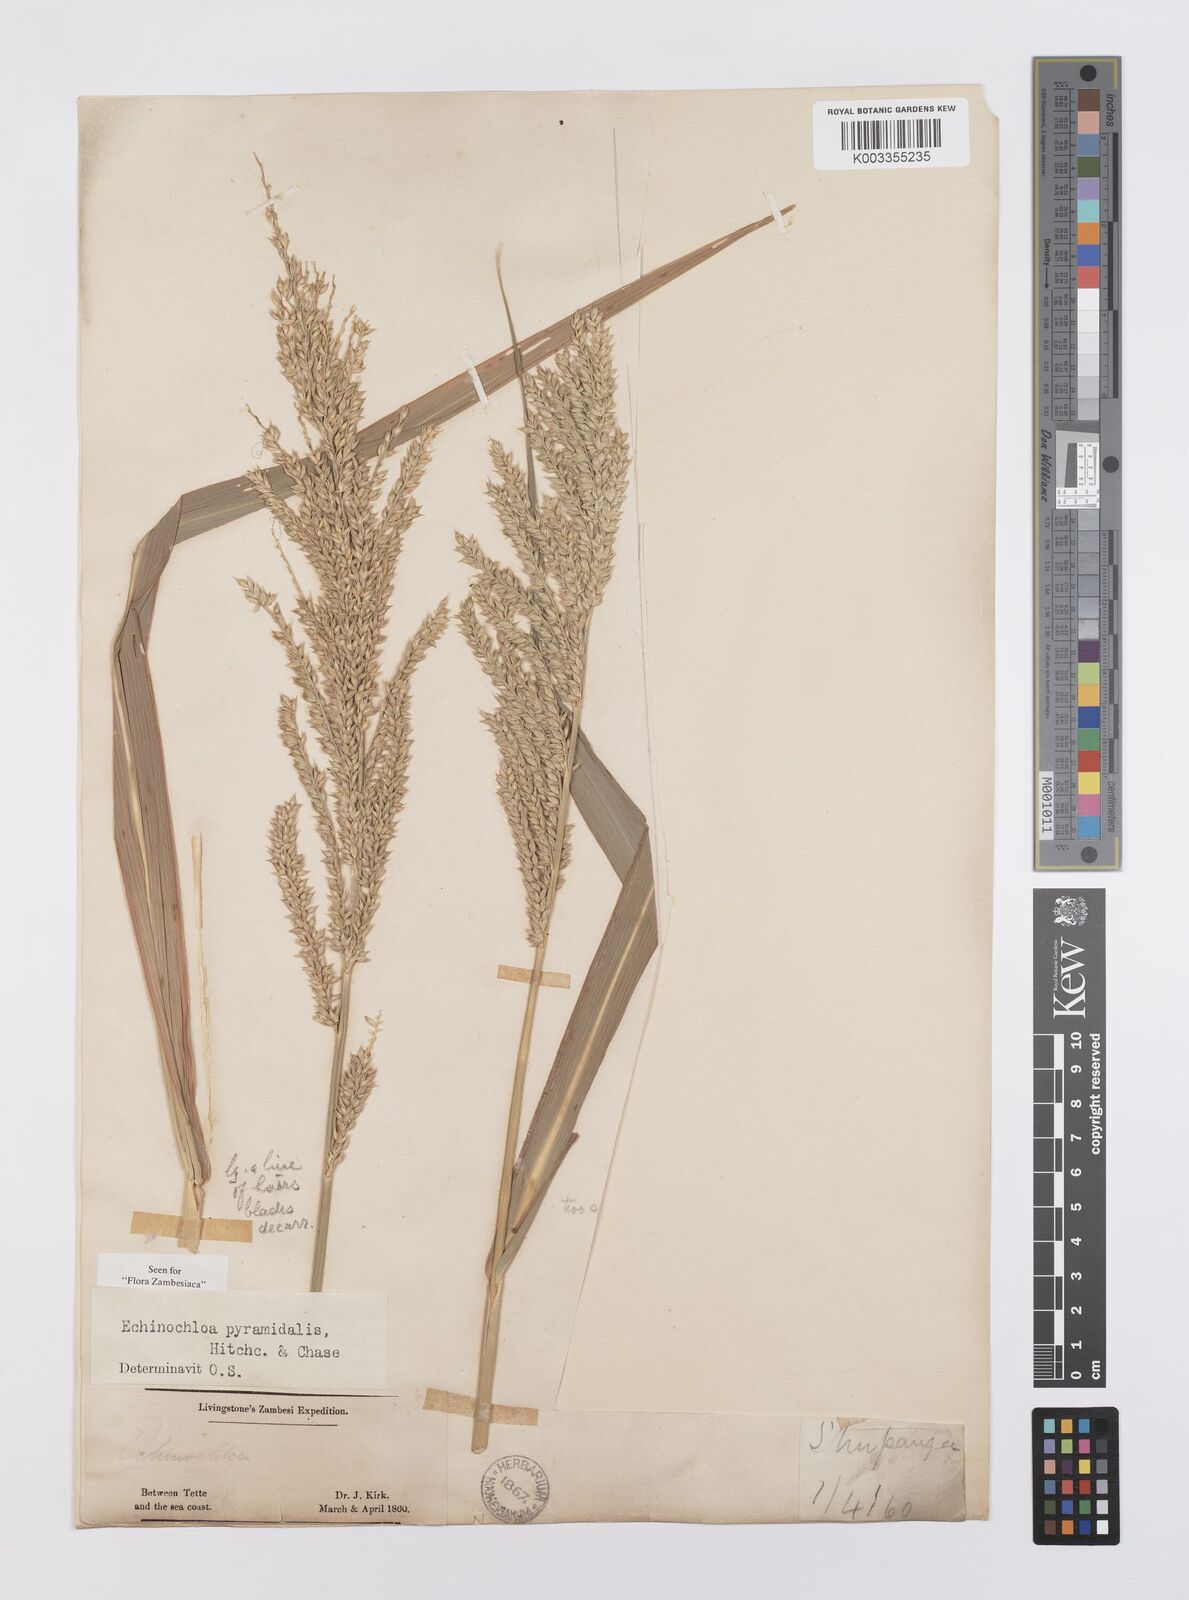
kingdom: Plantae
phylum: Tracheophyta
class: Liliopsida
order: Poales
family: Poaceae
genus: Echinochloa
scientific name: Echinochloa pyramidalis
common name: Antelope grass
